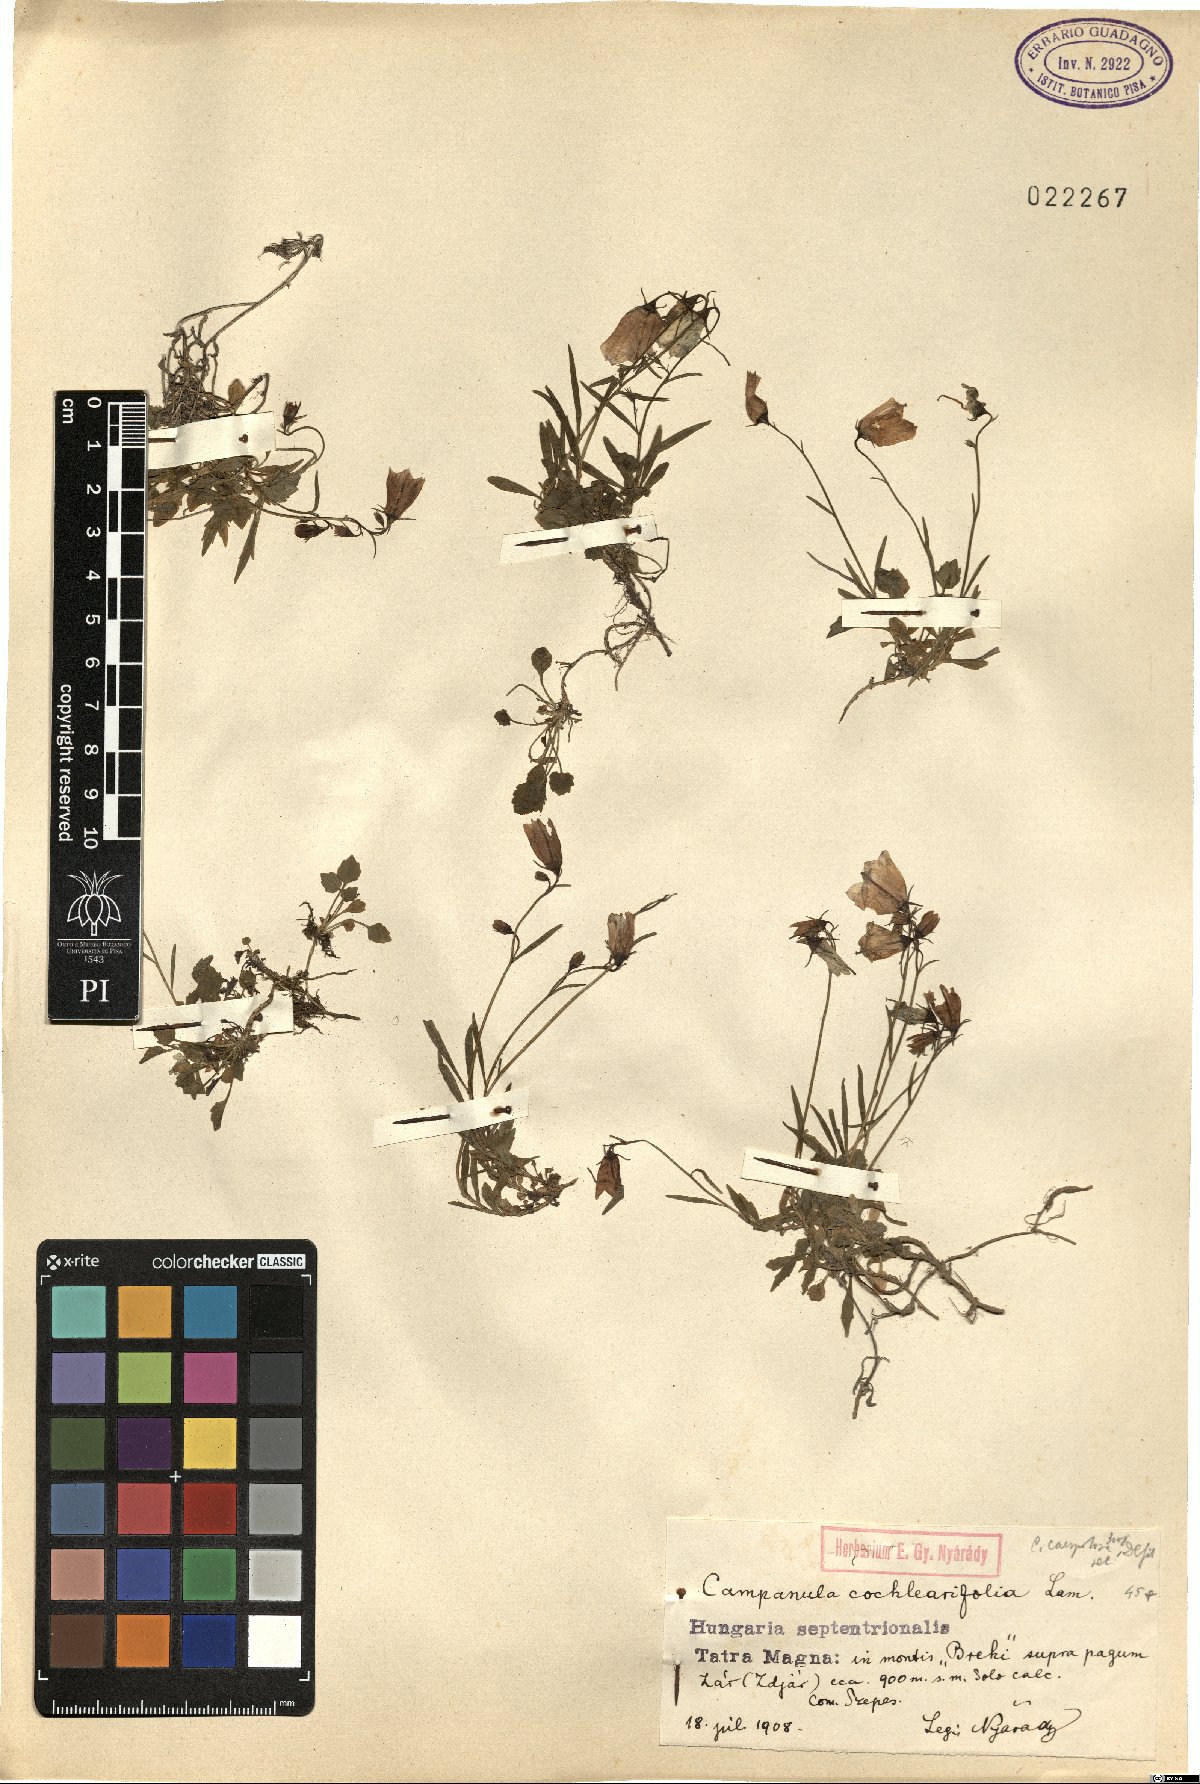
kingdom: Plantae
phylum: Tracheophyta
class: Magnoliopsida
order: Asterales
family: Campanulaceae
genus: Campanula
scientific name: Campanula cochleariifolia
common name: Fairies'-thimbles
